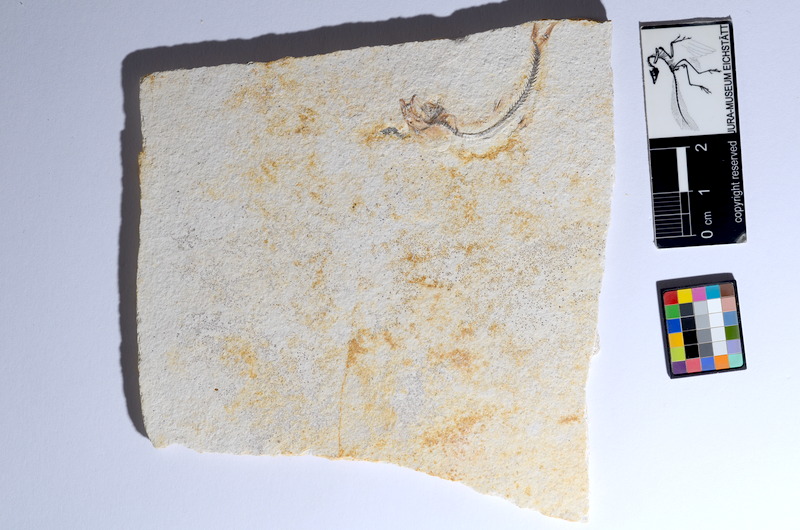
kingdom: Animalia
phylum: Chordata
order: Salmoniformes
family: Orthogonikleithridae
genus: Orthogonikleithrus
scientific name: Orthogonikleithrus hoelli
